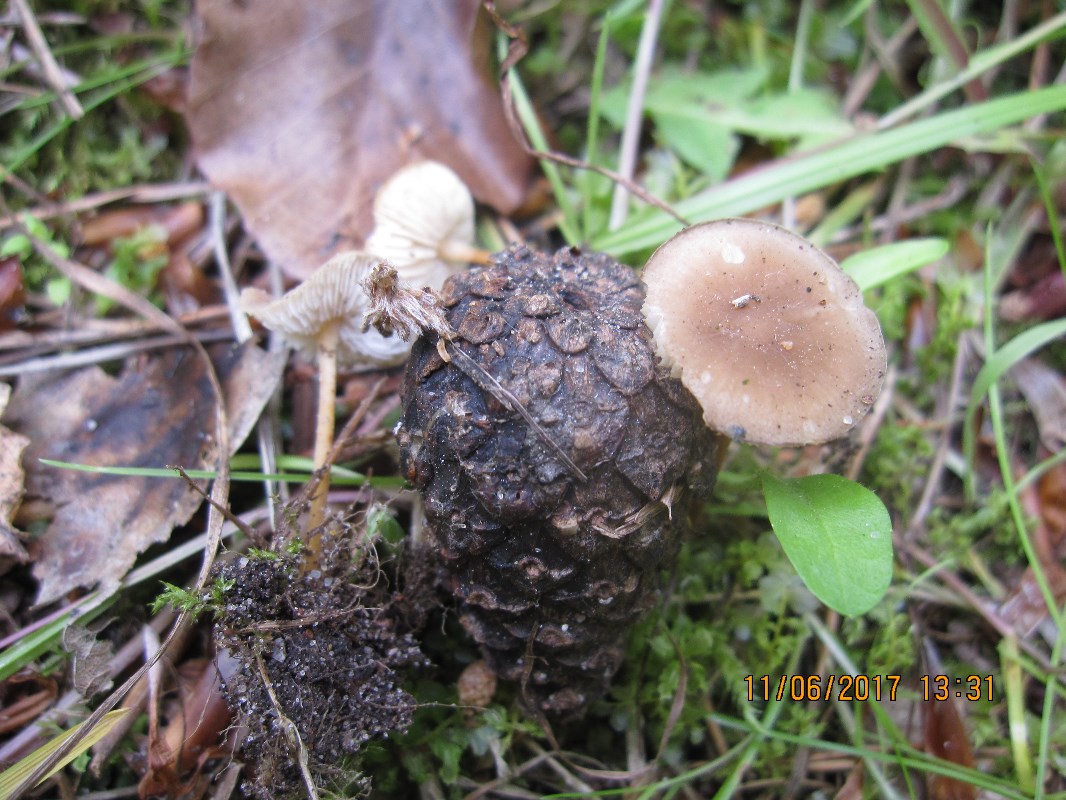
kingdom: Fungi
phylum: Basidiomycota
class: Agaricomycetes
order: Agaricales
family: Physalacriaceae
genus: Strobilurus
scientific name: Strobilurus tenacellus
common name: sommer-koglehat
